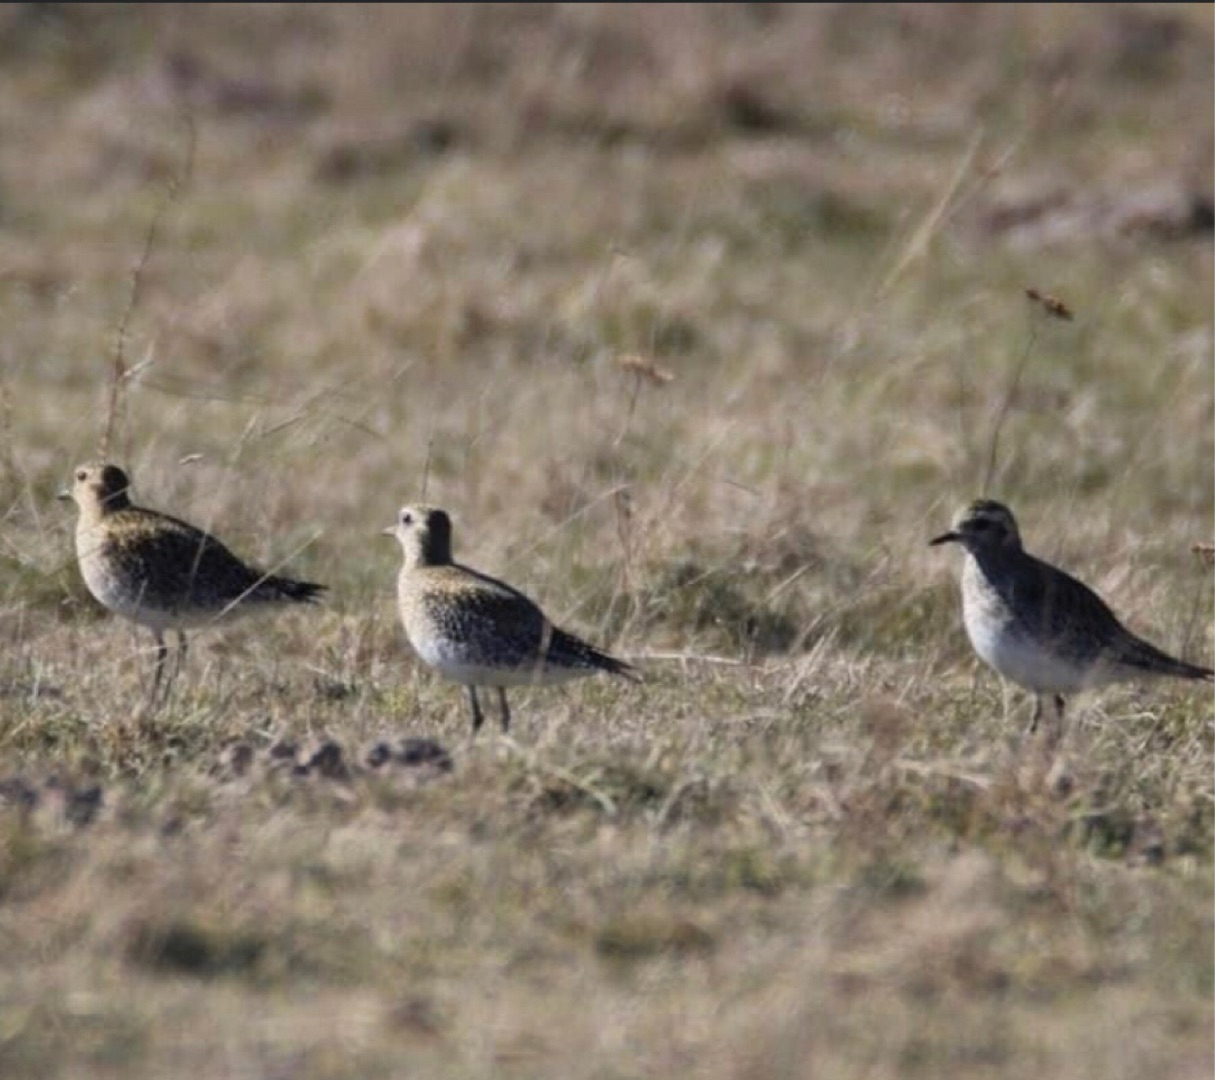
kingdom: Animalia
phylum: Chordata
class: Aves
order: Charadriiformes
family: Charadriidae
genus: Pluvialis
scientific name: Pluvialis apricaria
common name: Hjejle
